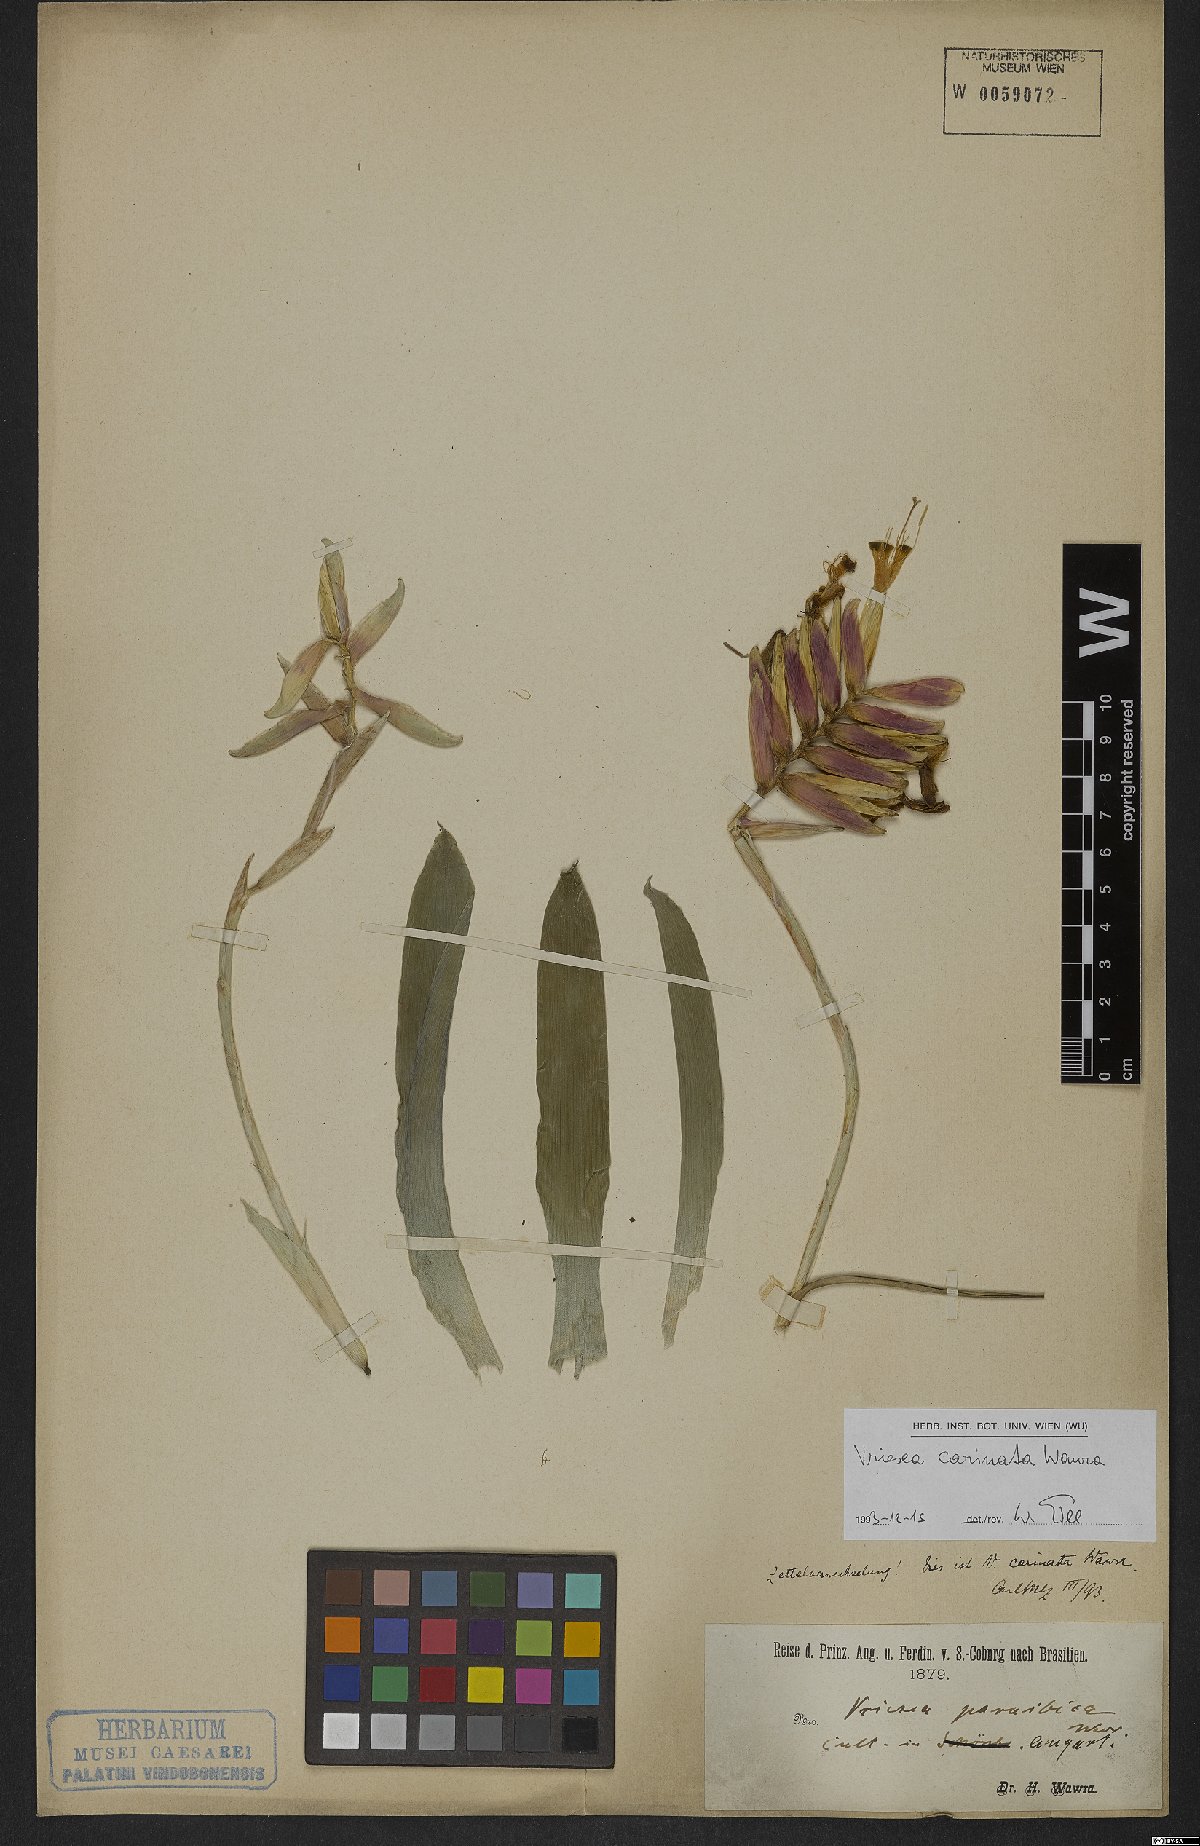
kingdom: Plantae
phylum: Tracheophyta
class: Liliopsida
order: Poales
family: Bromeliaceae
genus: Vriesea
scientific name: Vriesea carinata
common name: Lobster-claws
